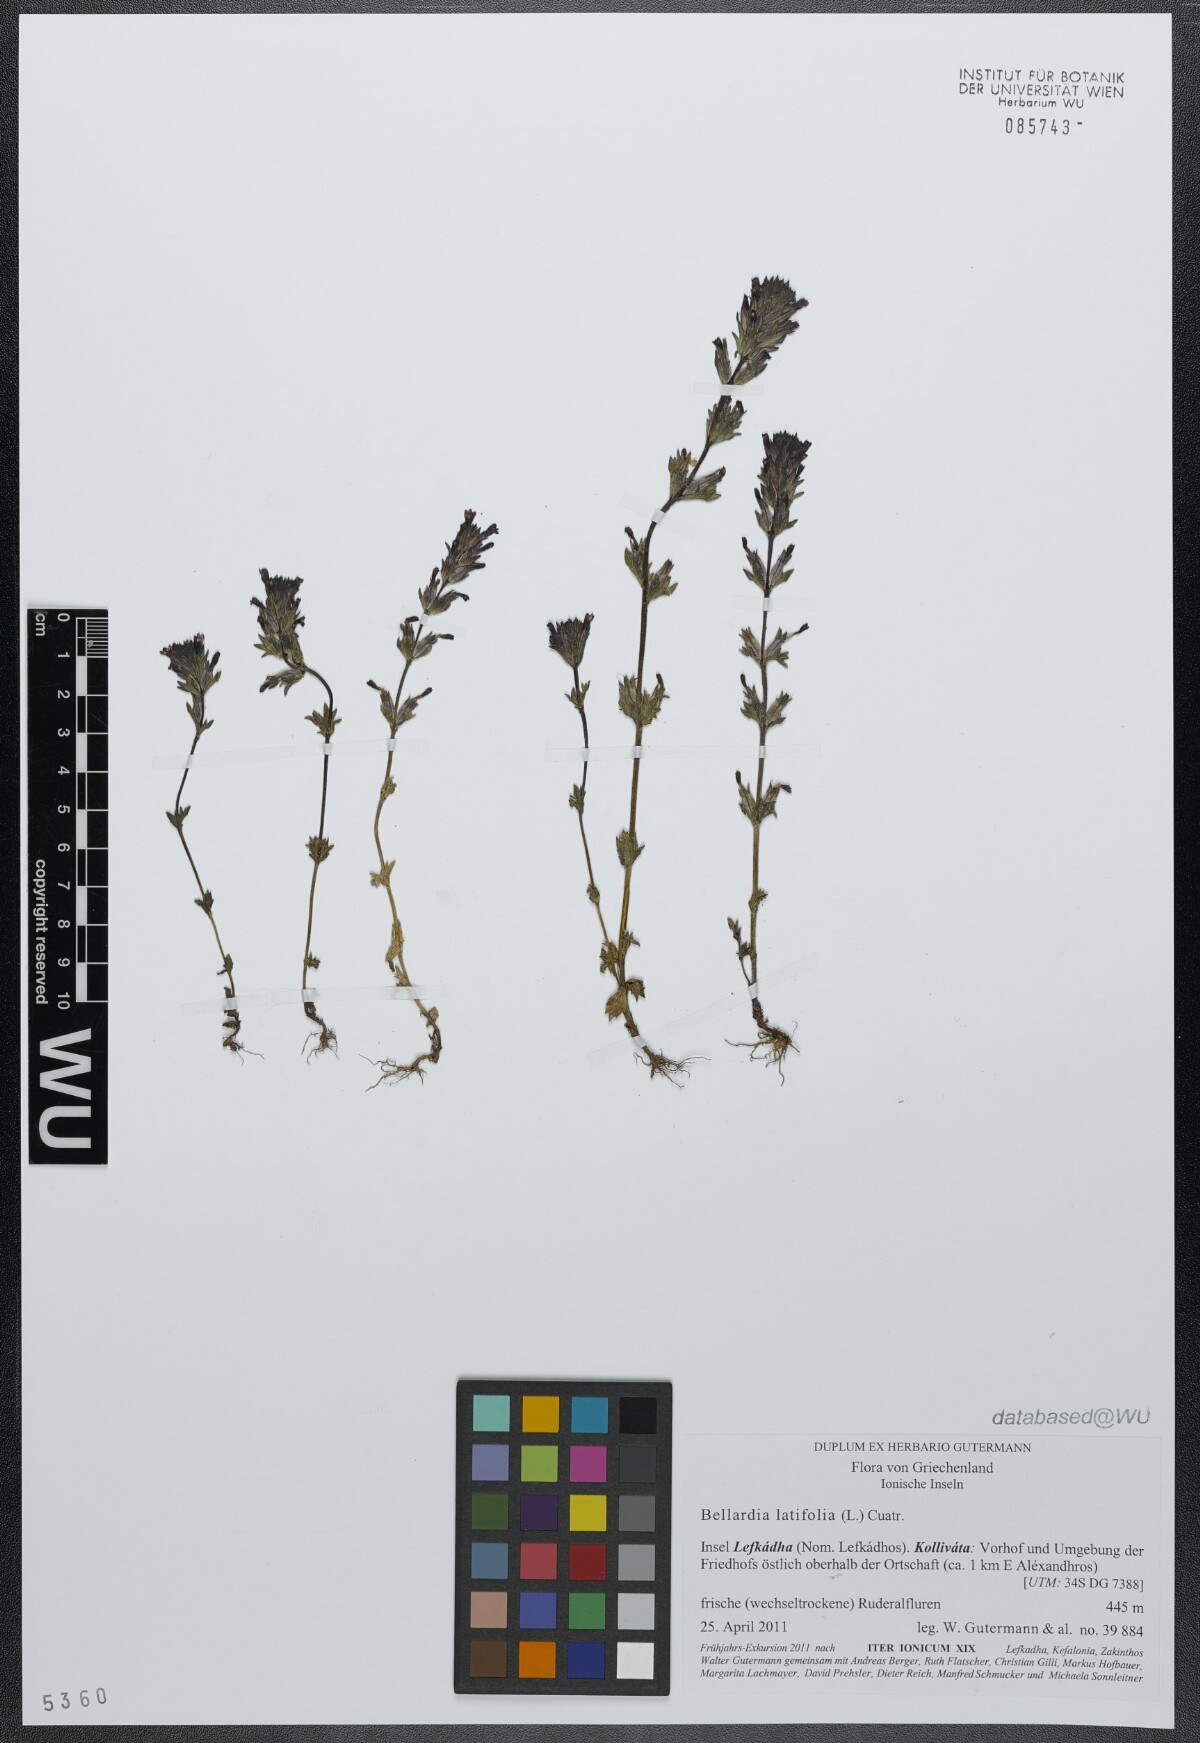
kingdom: Plantae
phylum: Tracheophyta
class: Magnoliopsida
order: Lamiales
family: Orobanchaceae
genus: Parentucellia
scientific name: Parentucellia latifolia
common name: Broadleaf glandweed
